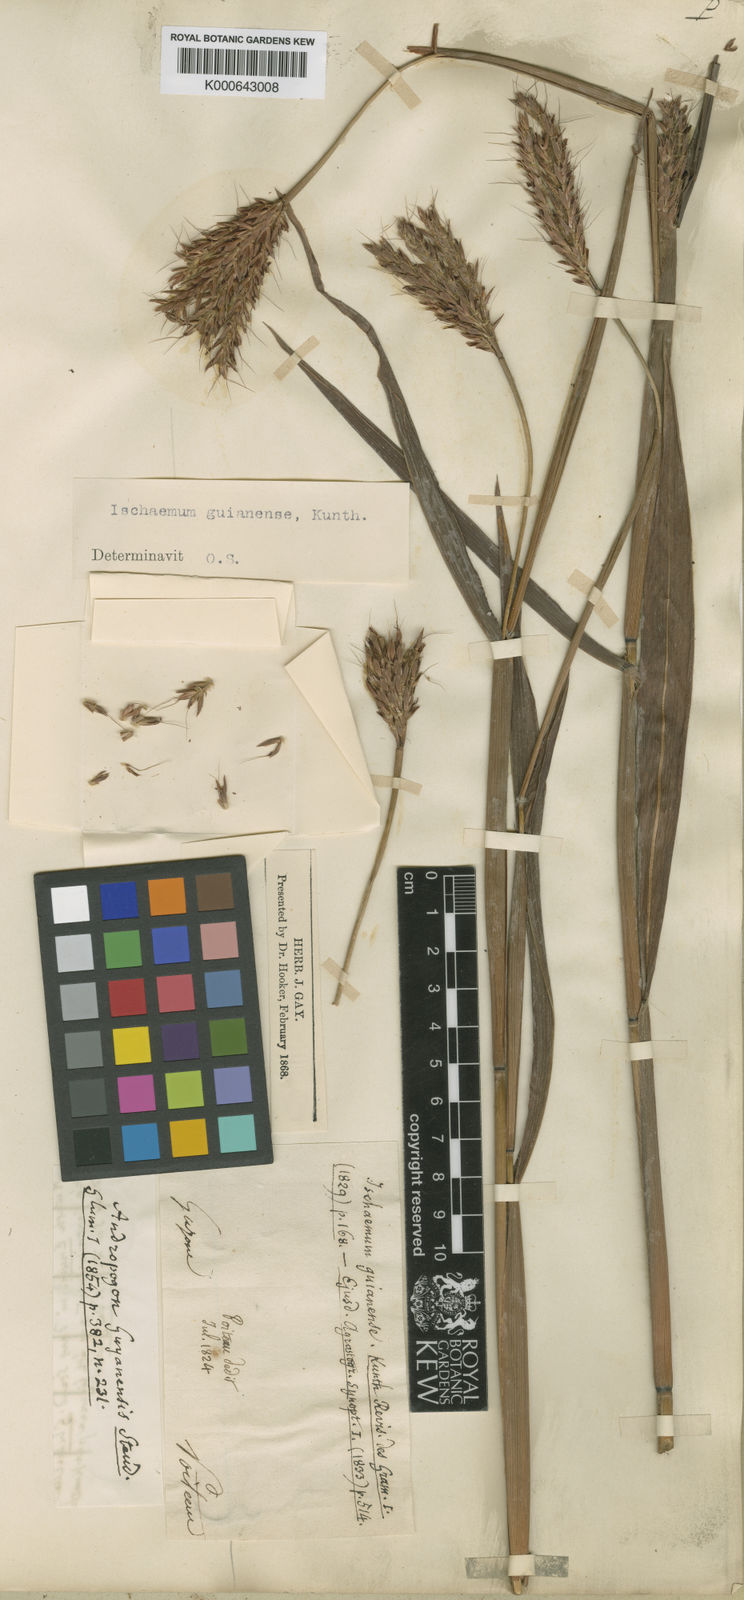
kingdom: Plantae
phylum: Tracheophyta
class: Liliopsida
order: Poales
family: Poaceae
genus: Ischaemum
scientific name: Ischaemum guianense
